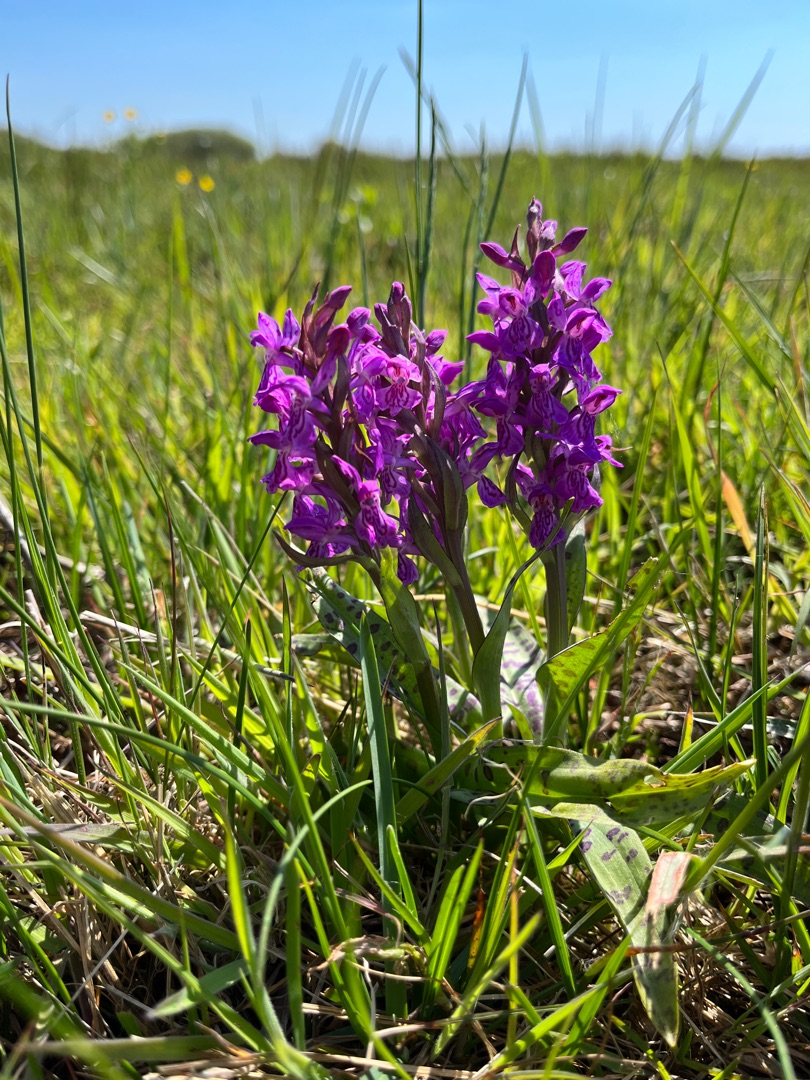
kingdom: Plantae
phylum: Tracheophyta
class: Liliopsida
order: Asparagales
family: Orchidaceae
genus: Dactylorhiza
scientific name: Dactylorhiza majalis
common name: Maj-gøgeurt
